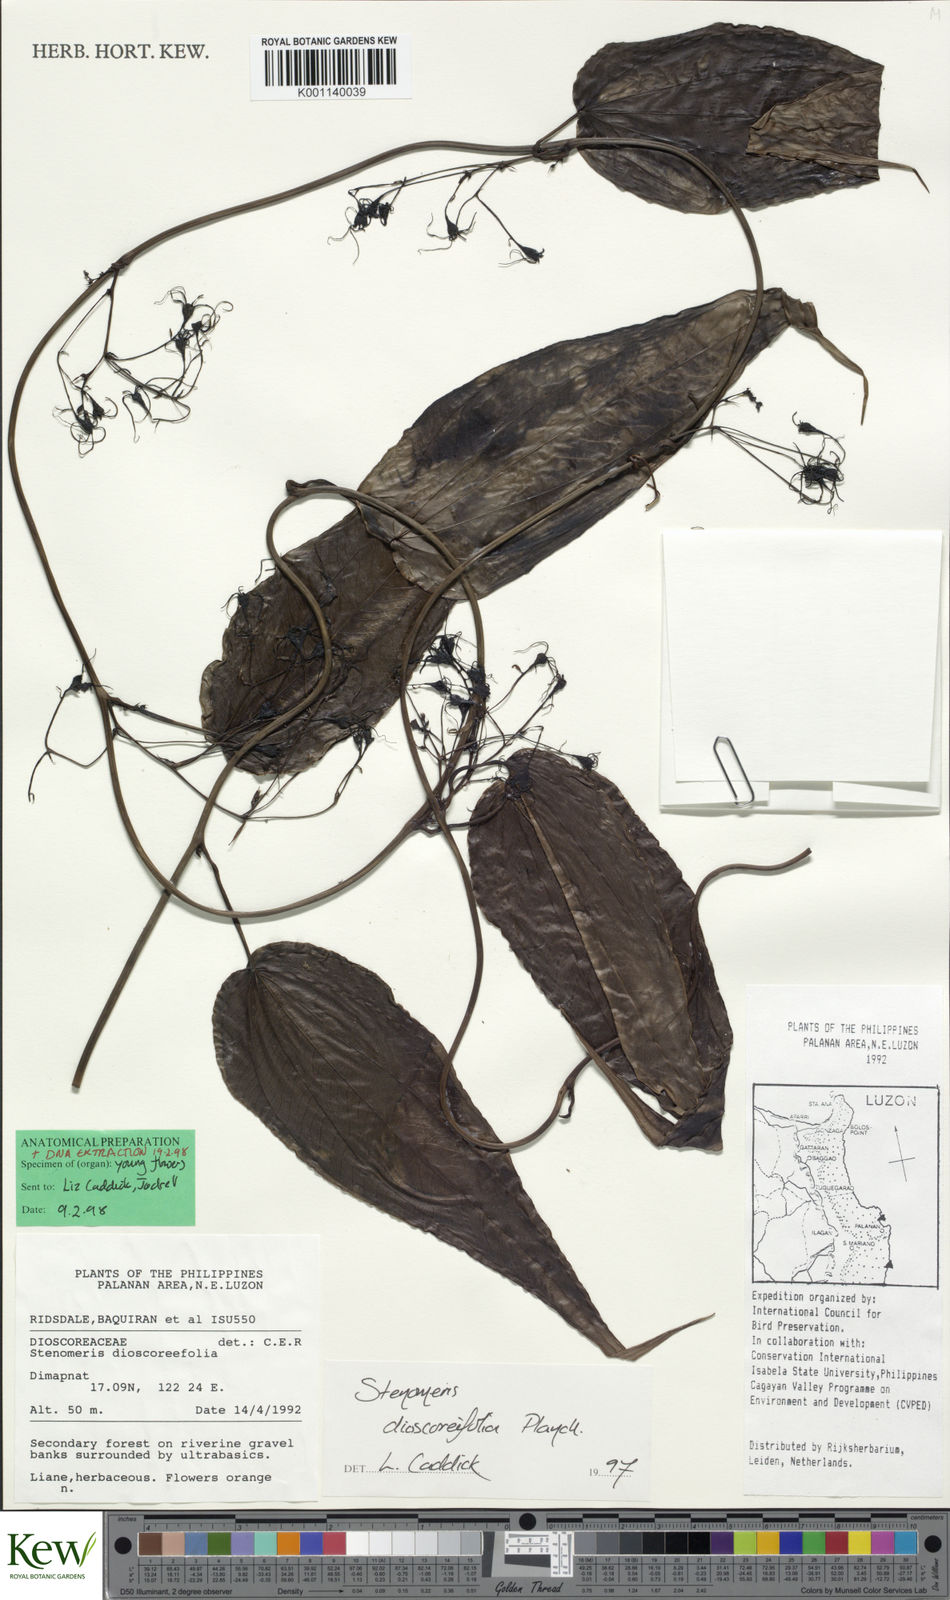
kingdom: Plantae
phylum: Tracheophyta
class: Liliopsida
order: Dioscoreales
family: Dioscoreaceae
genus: Stenomeris
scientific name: Stenomeris dioscoreifolia
